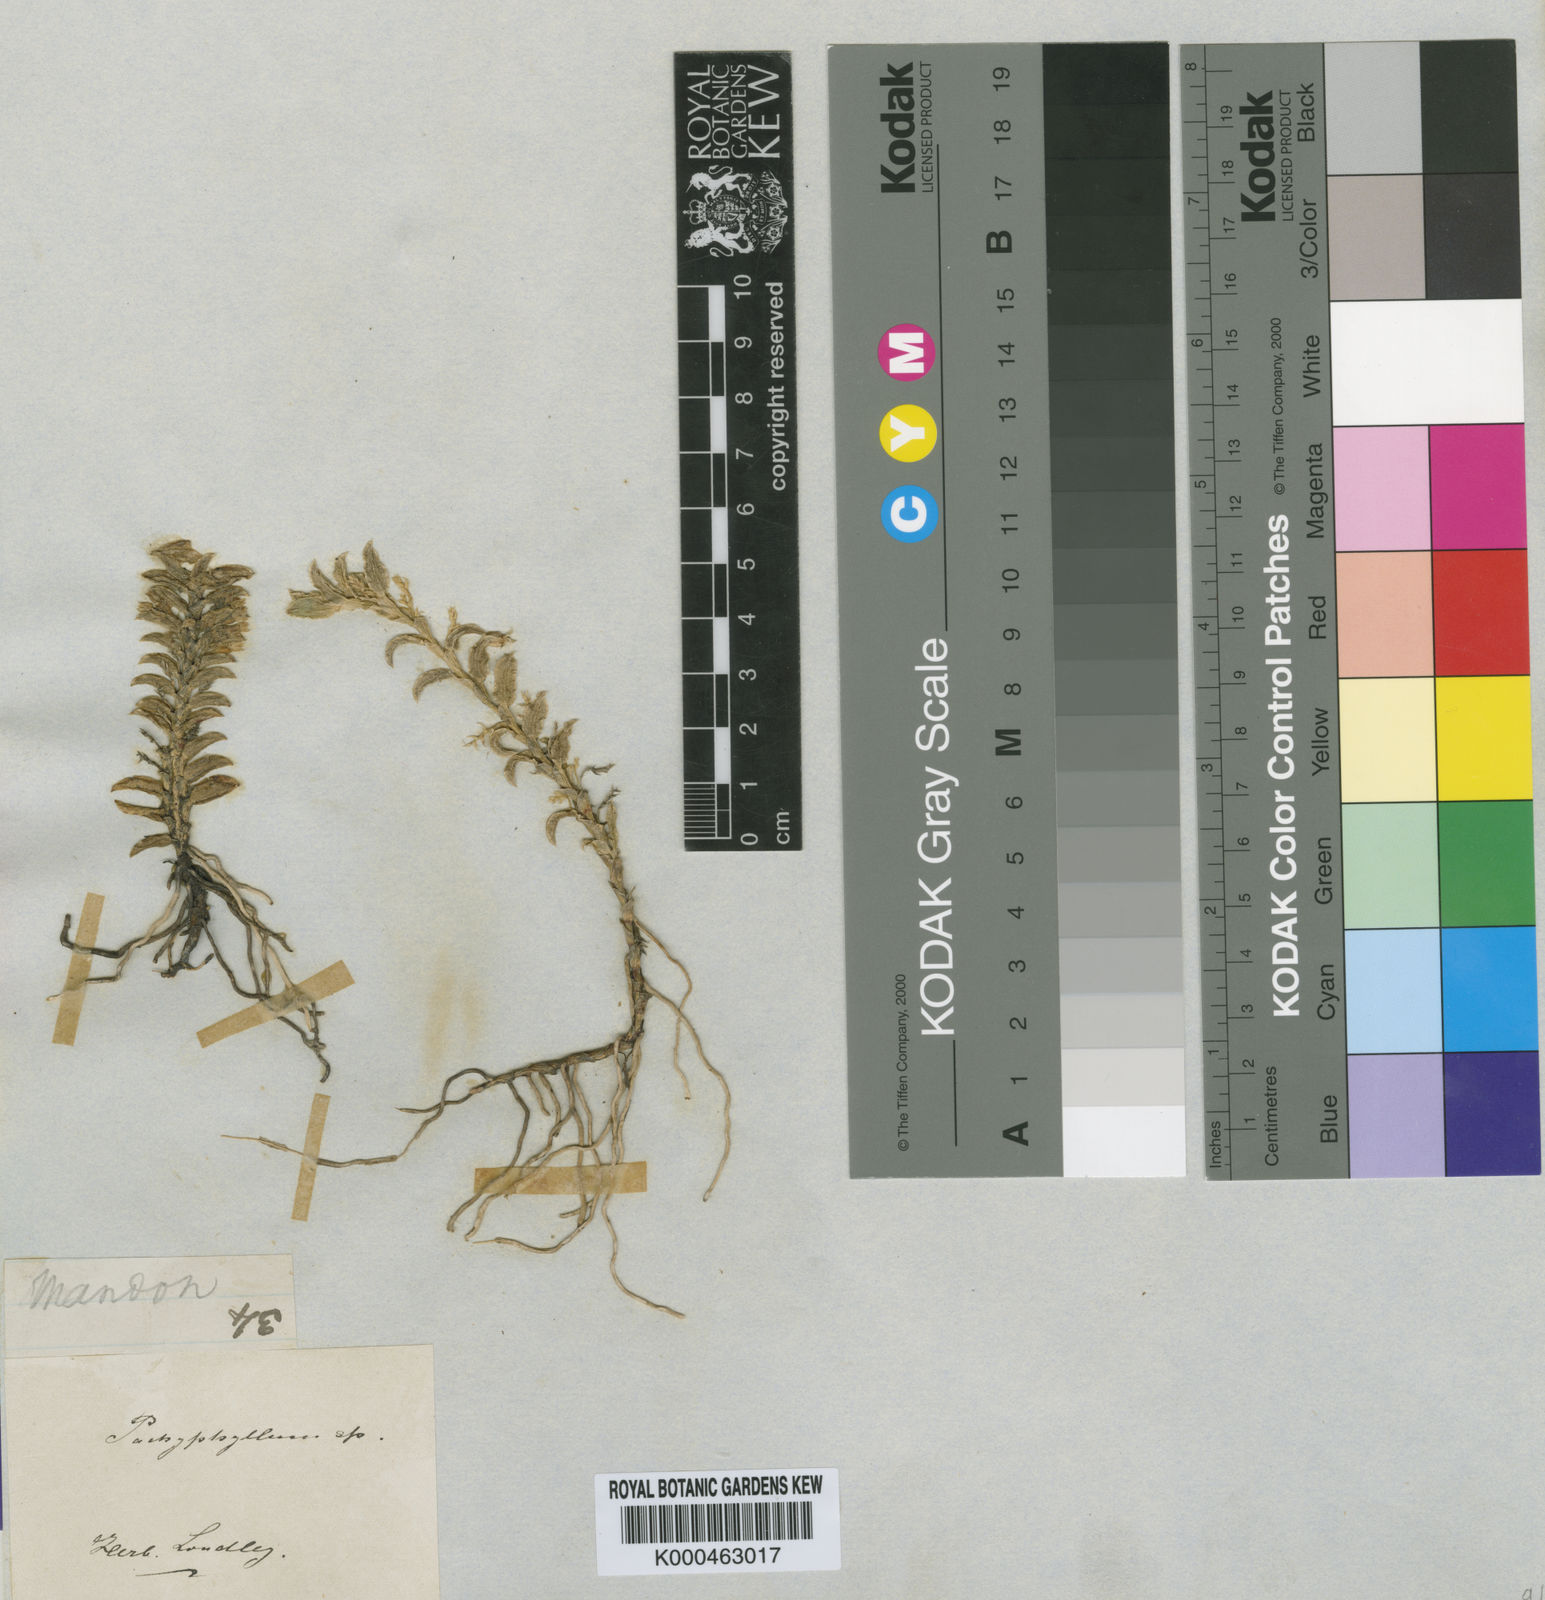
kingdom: Plantae
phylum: Tracheophyta
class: Liliopsida
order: Asparagales
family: Orchidaceae
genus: Fernandezia
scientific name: Fernandezia
